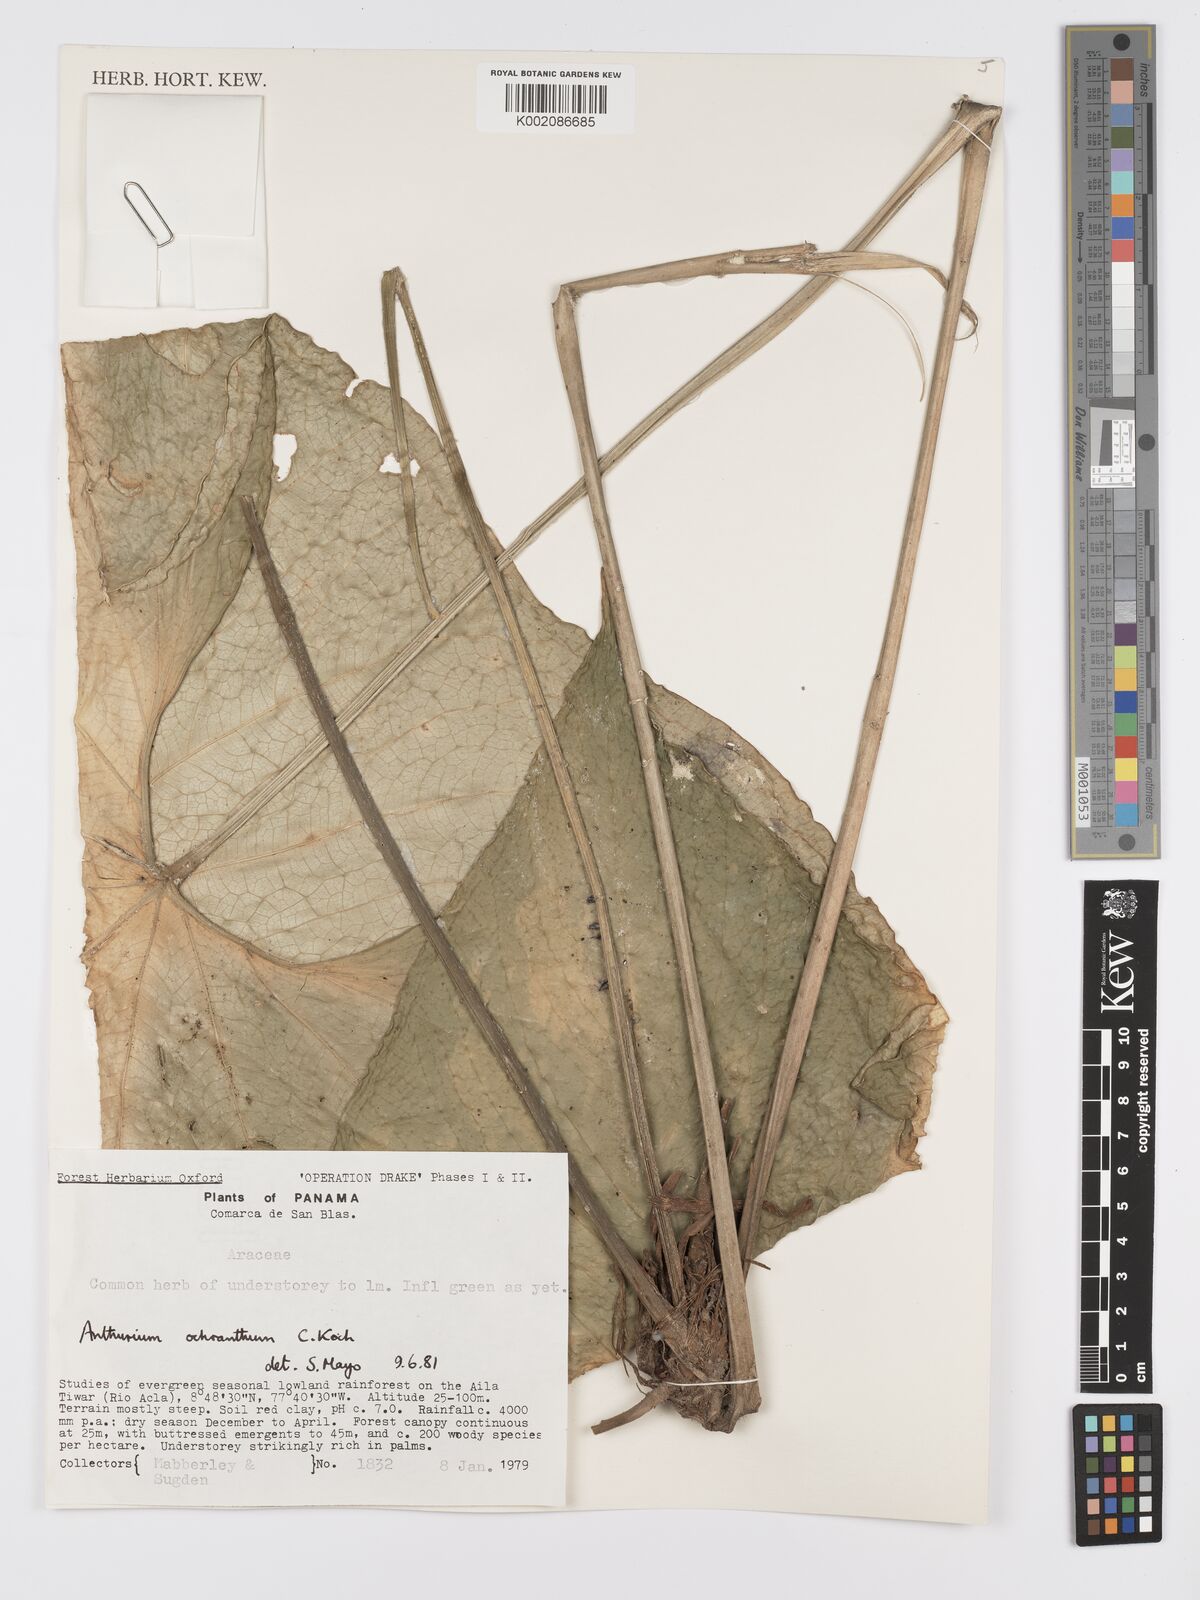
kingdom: Plantae
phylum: Tracheophyta
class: Liliopsida
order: Alismatales
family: Araceae
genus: Anthurium
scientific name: Anthurium ochranthum
